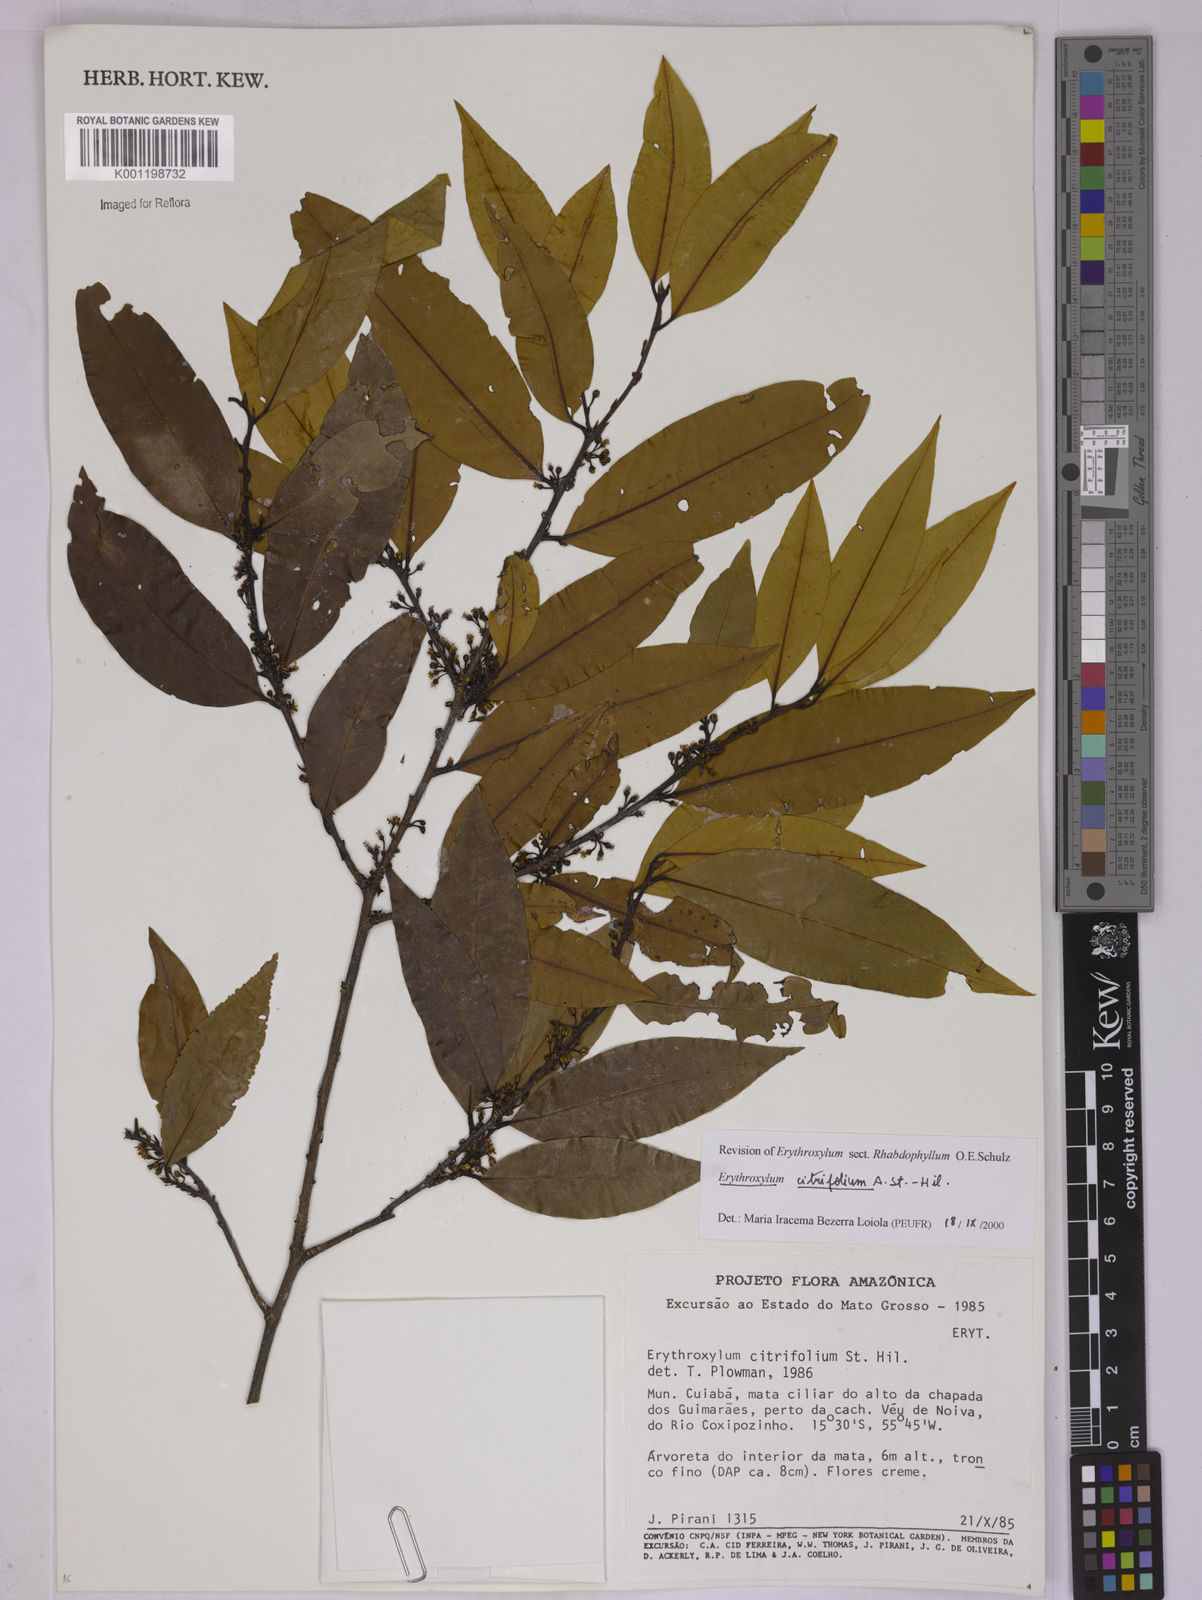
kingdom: Plantae
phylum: Tracheophyta
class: Magnoliopsida
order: Malpighiales
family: Erythroxylaceae
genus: Erythroxylum
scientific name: Erythroxylum citrifolium
